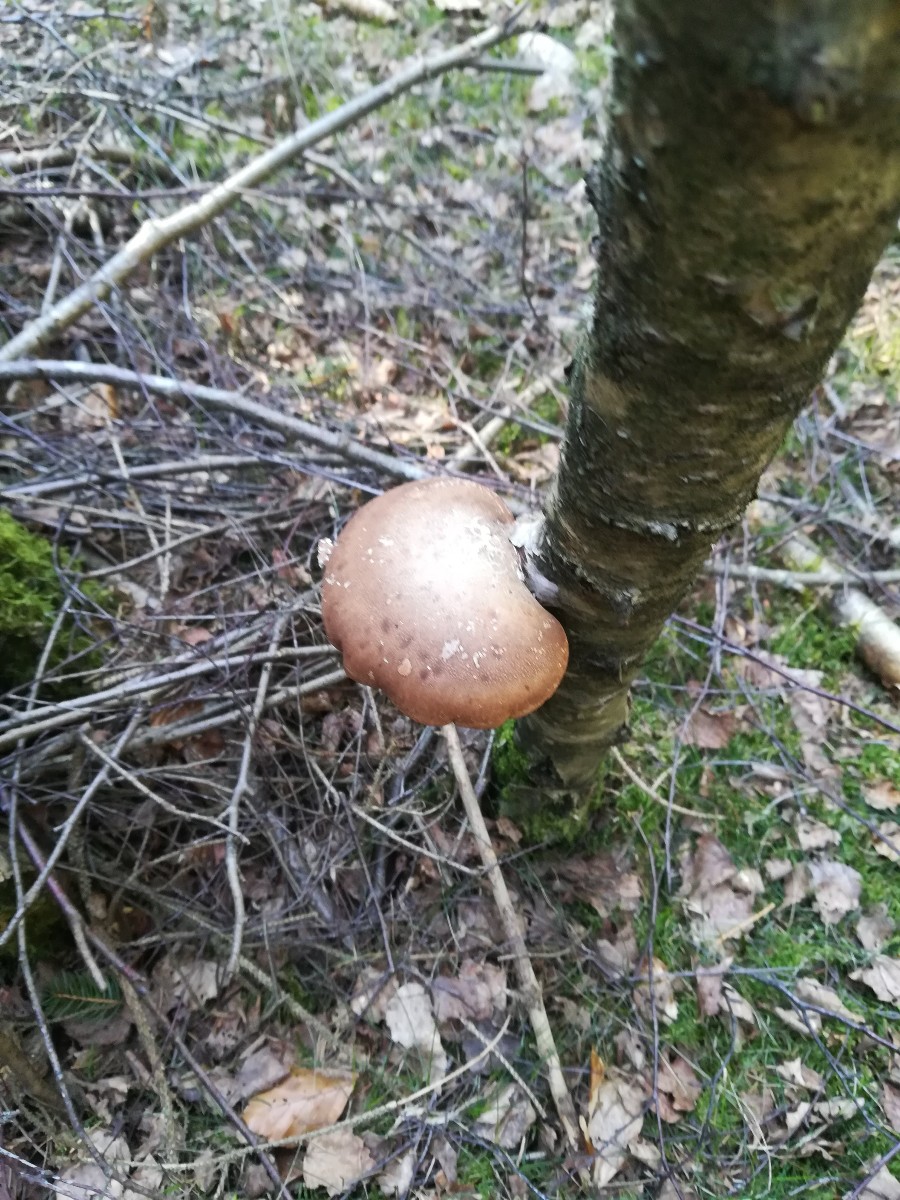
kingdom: Fungi
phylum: Basidiomycota
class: Agaricomycetes
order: Polyporales
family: Fomitopsidaceae
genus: Fomitopsis
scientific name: Fomitopsis betulina
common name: birkeporesvamp
